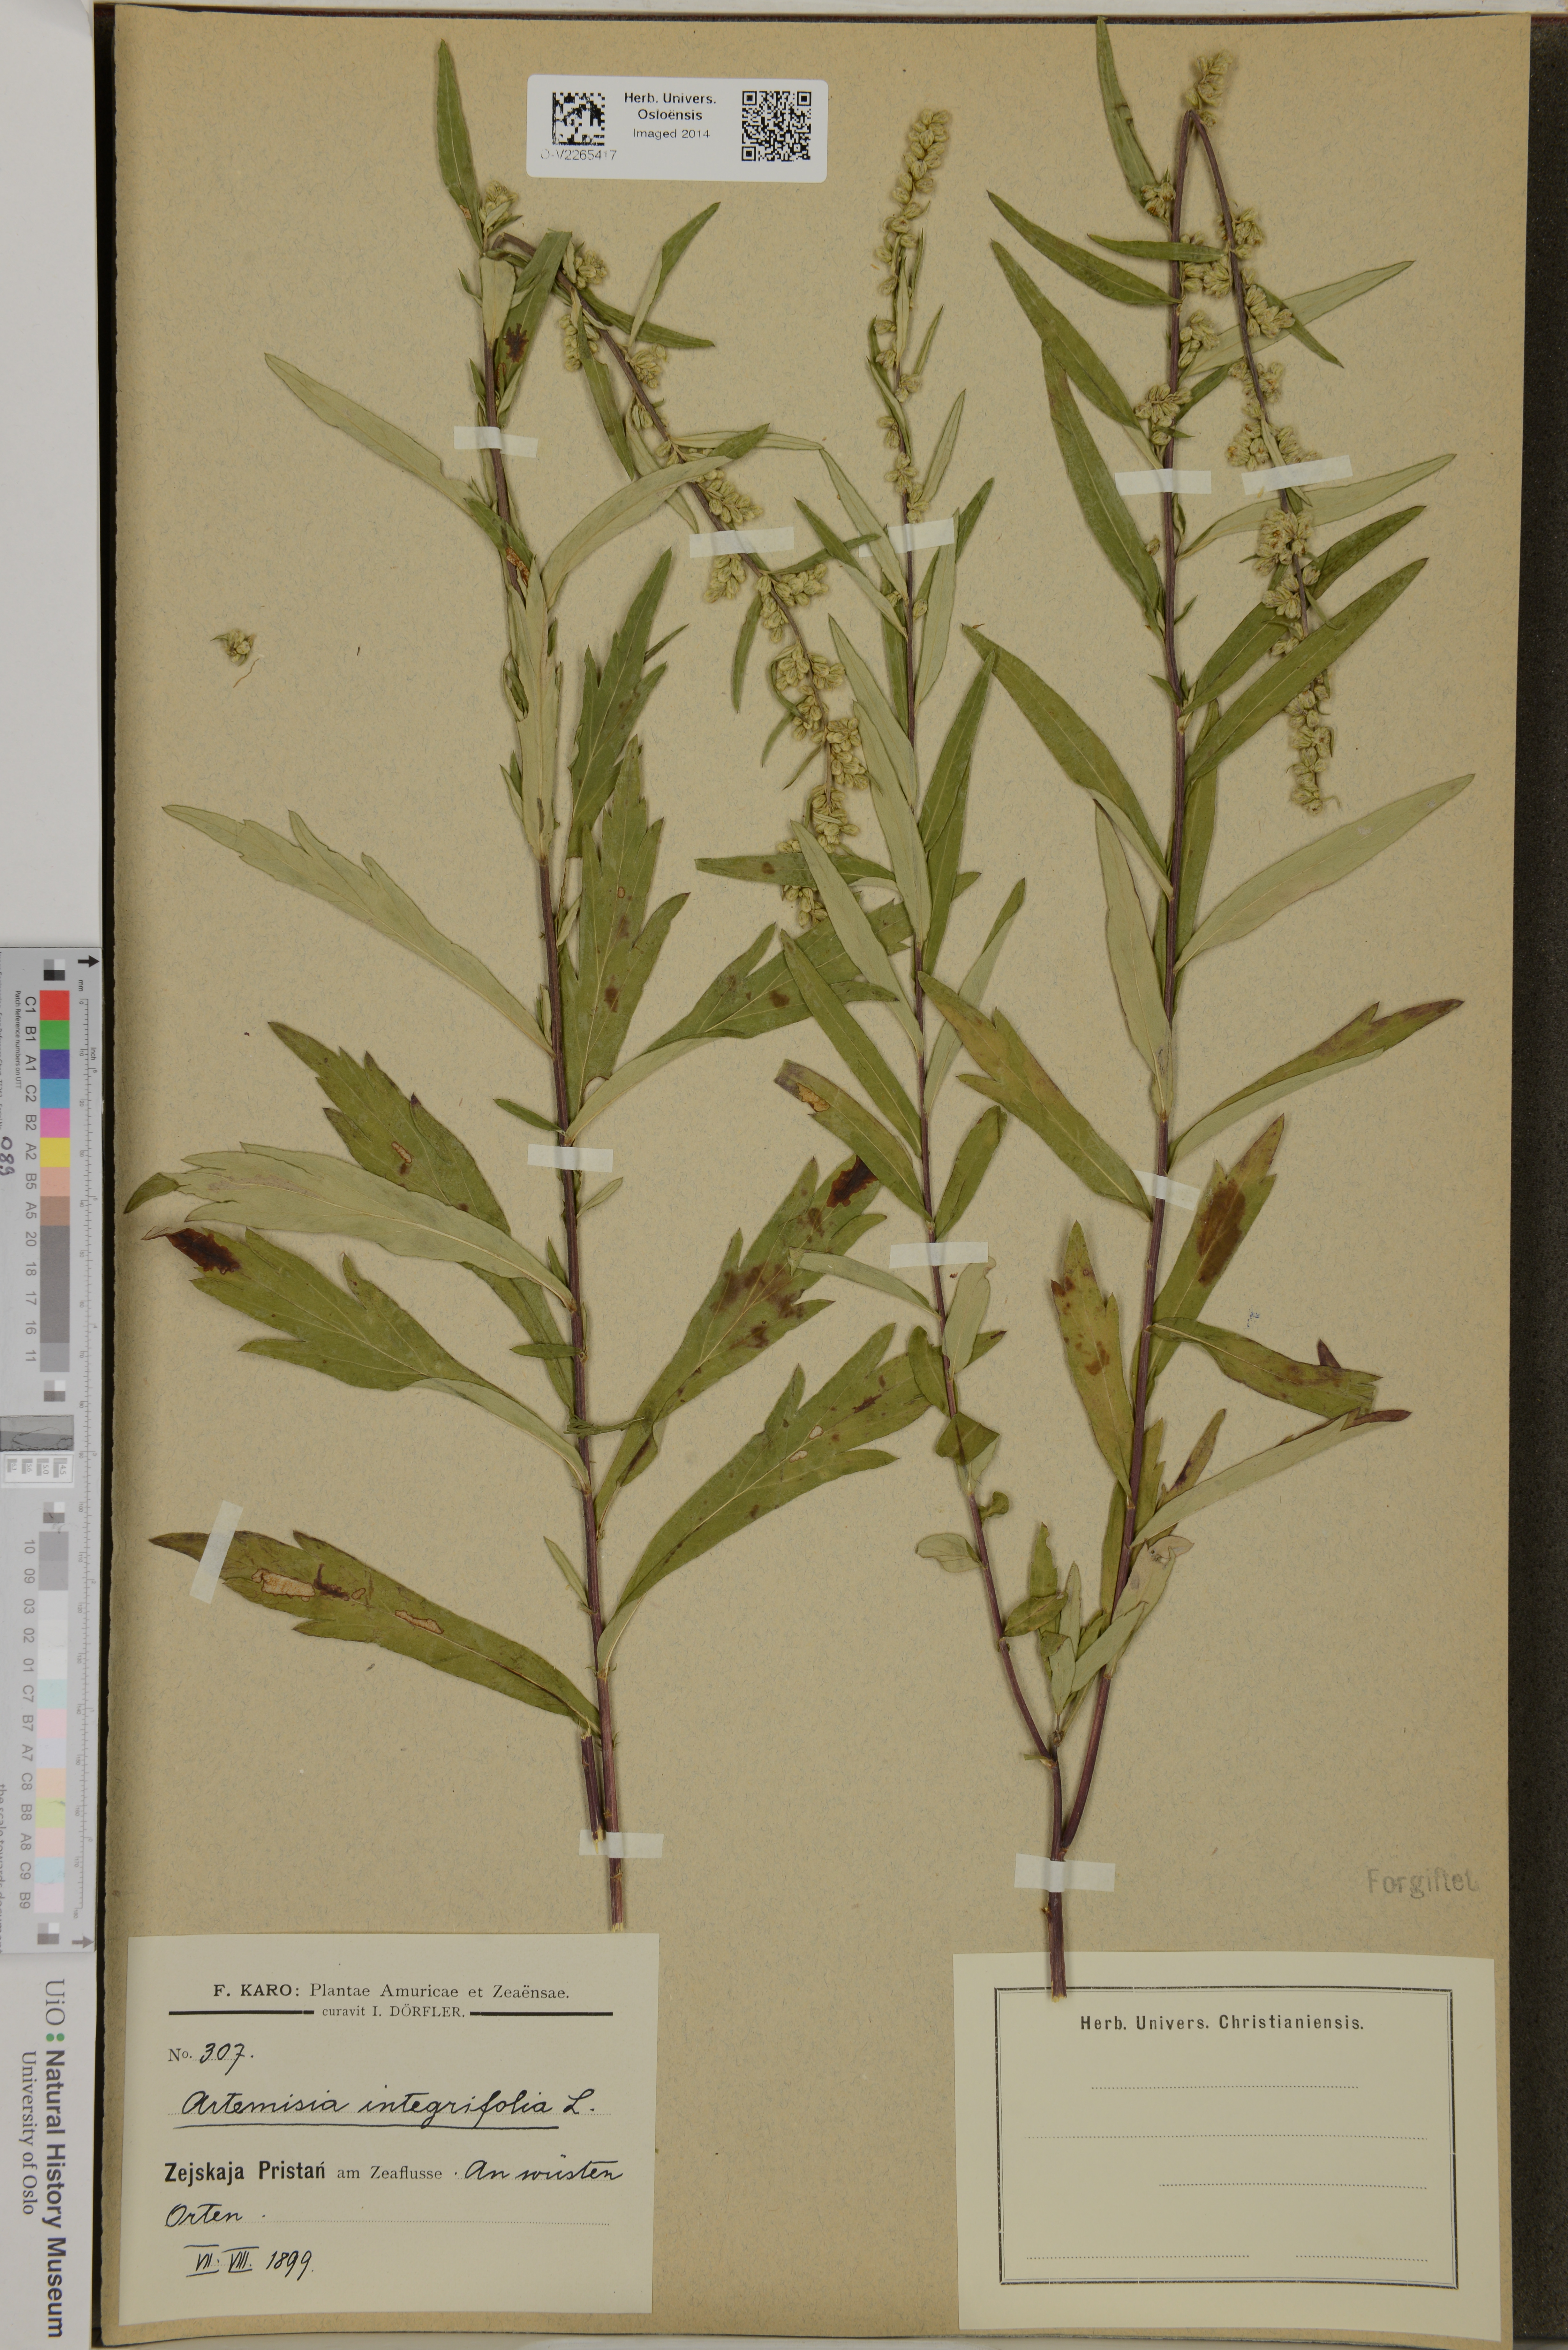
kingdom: Plantae
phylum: Tracheophyta
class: Magnoliopsida
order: Asterales
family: Asteraceae
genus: Artemisia
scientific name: Artemisia integrifolia
